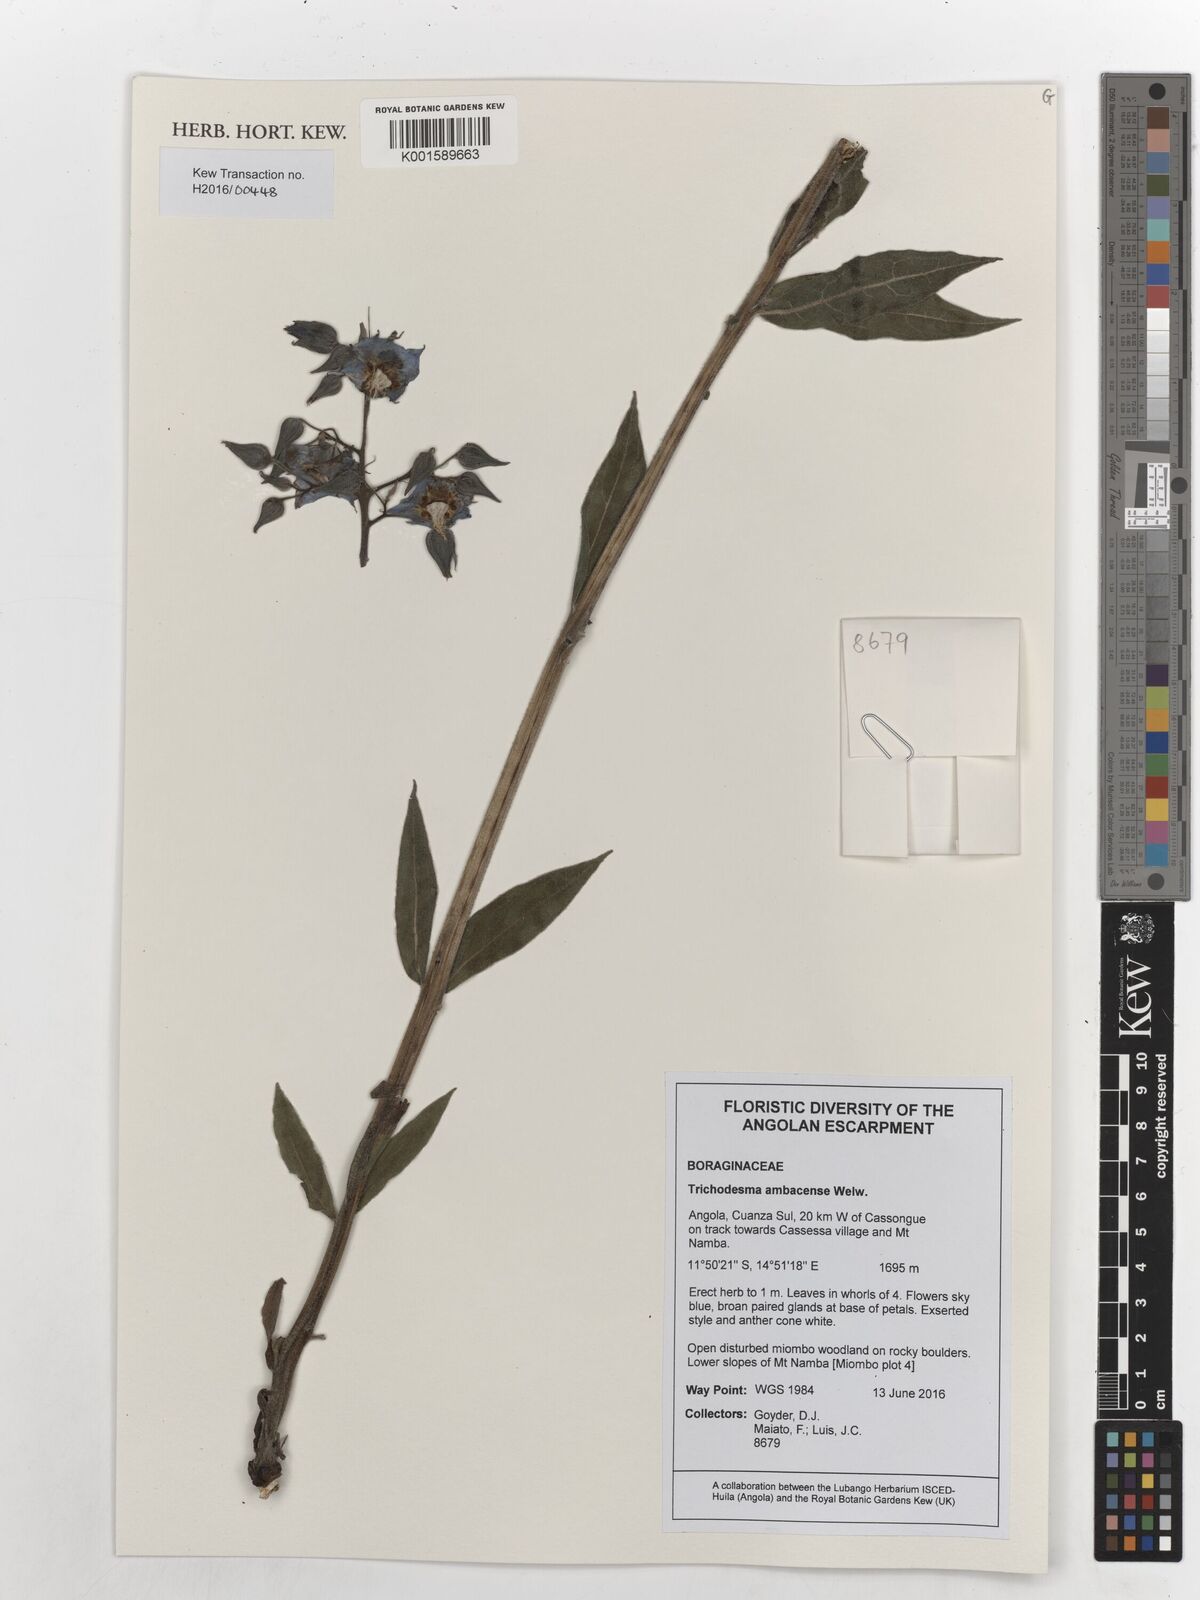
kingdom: Plantae
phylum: Tracheophyta
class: Magnoliopsida
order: Boraginales
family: Boraginaceae
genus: Trichodesma
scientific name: Trichodesma ambacense
